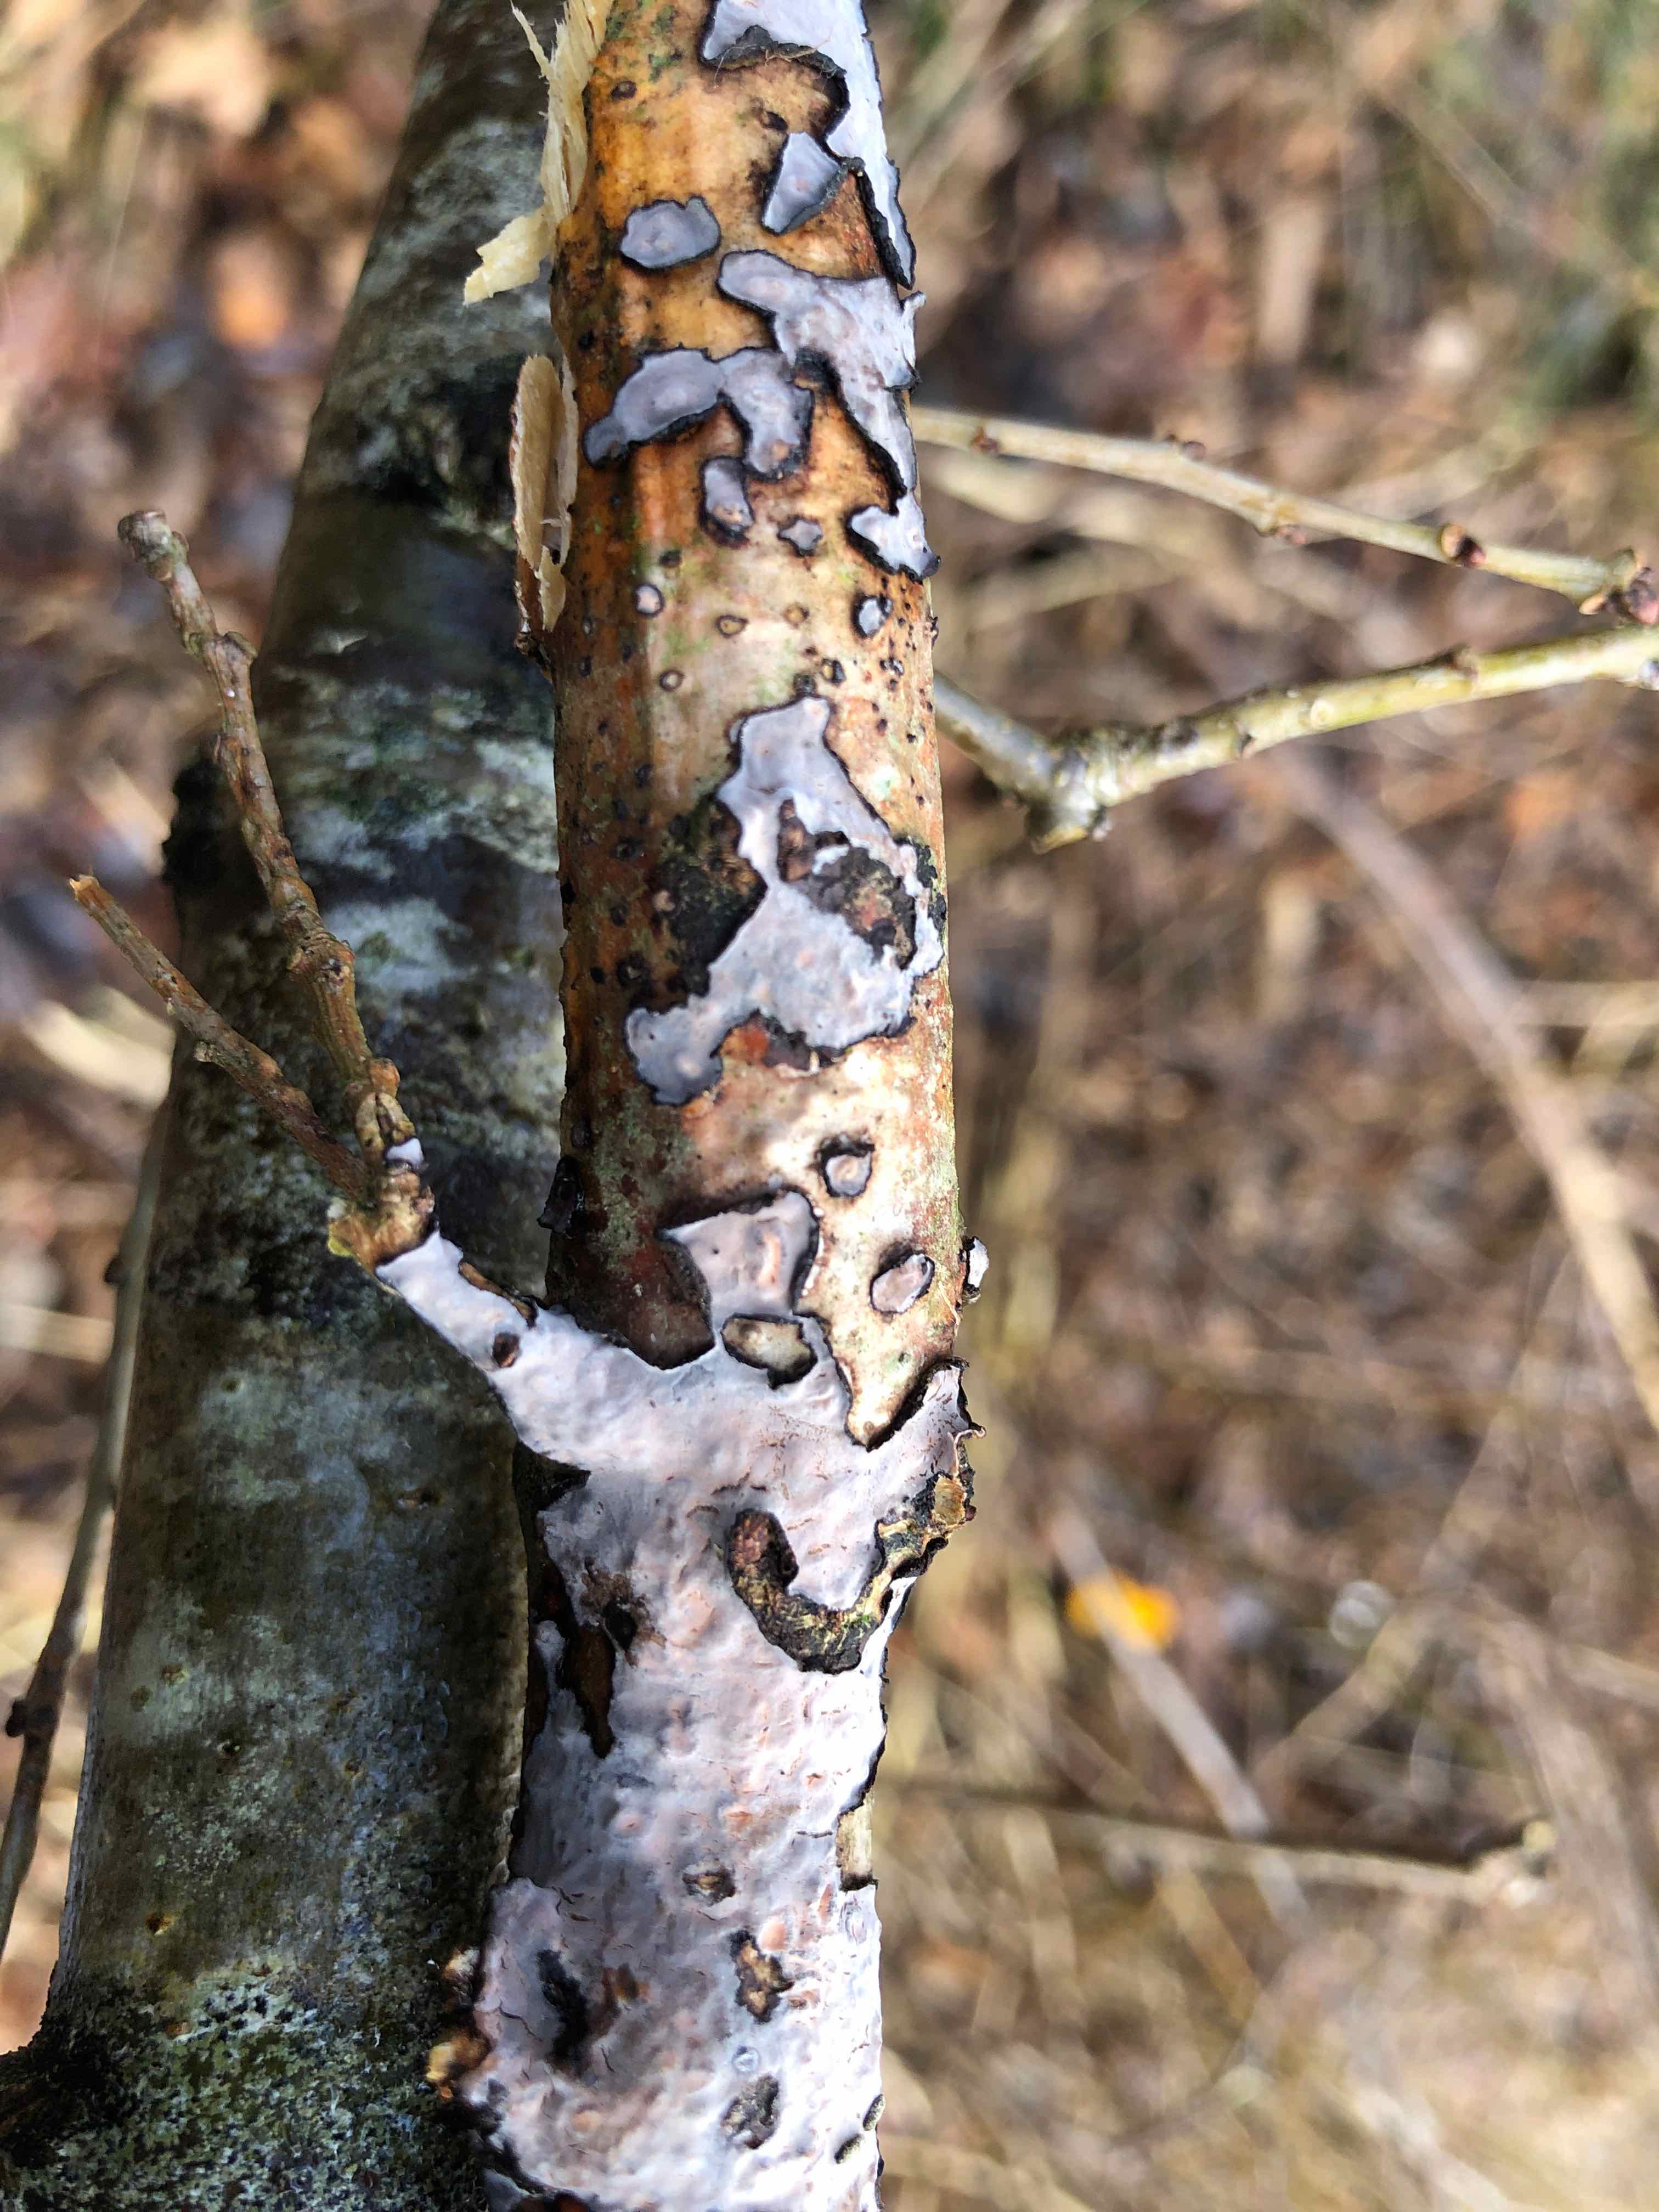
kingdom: Fungi
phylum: Basidiomycota
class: Agaricomycetes
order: Russulales
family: Peniophoraceae
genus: Peniophora
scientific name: Peniophora quercina
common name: ege-voksskind
